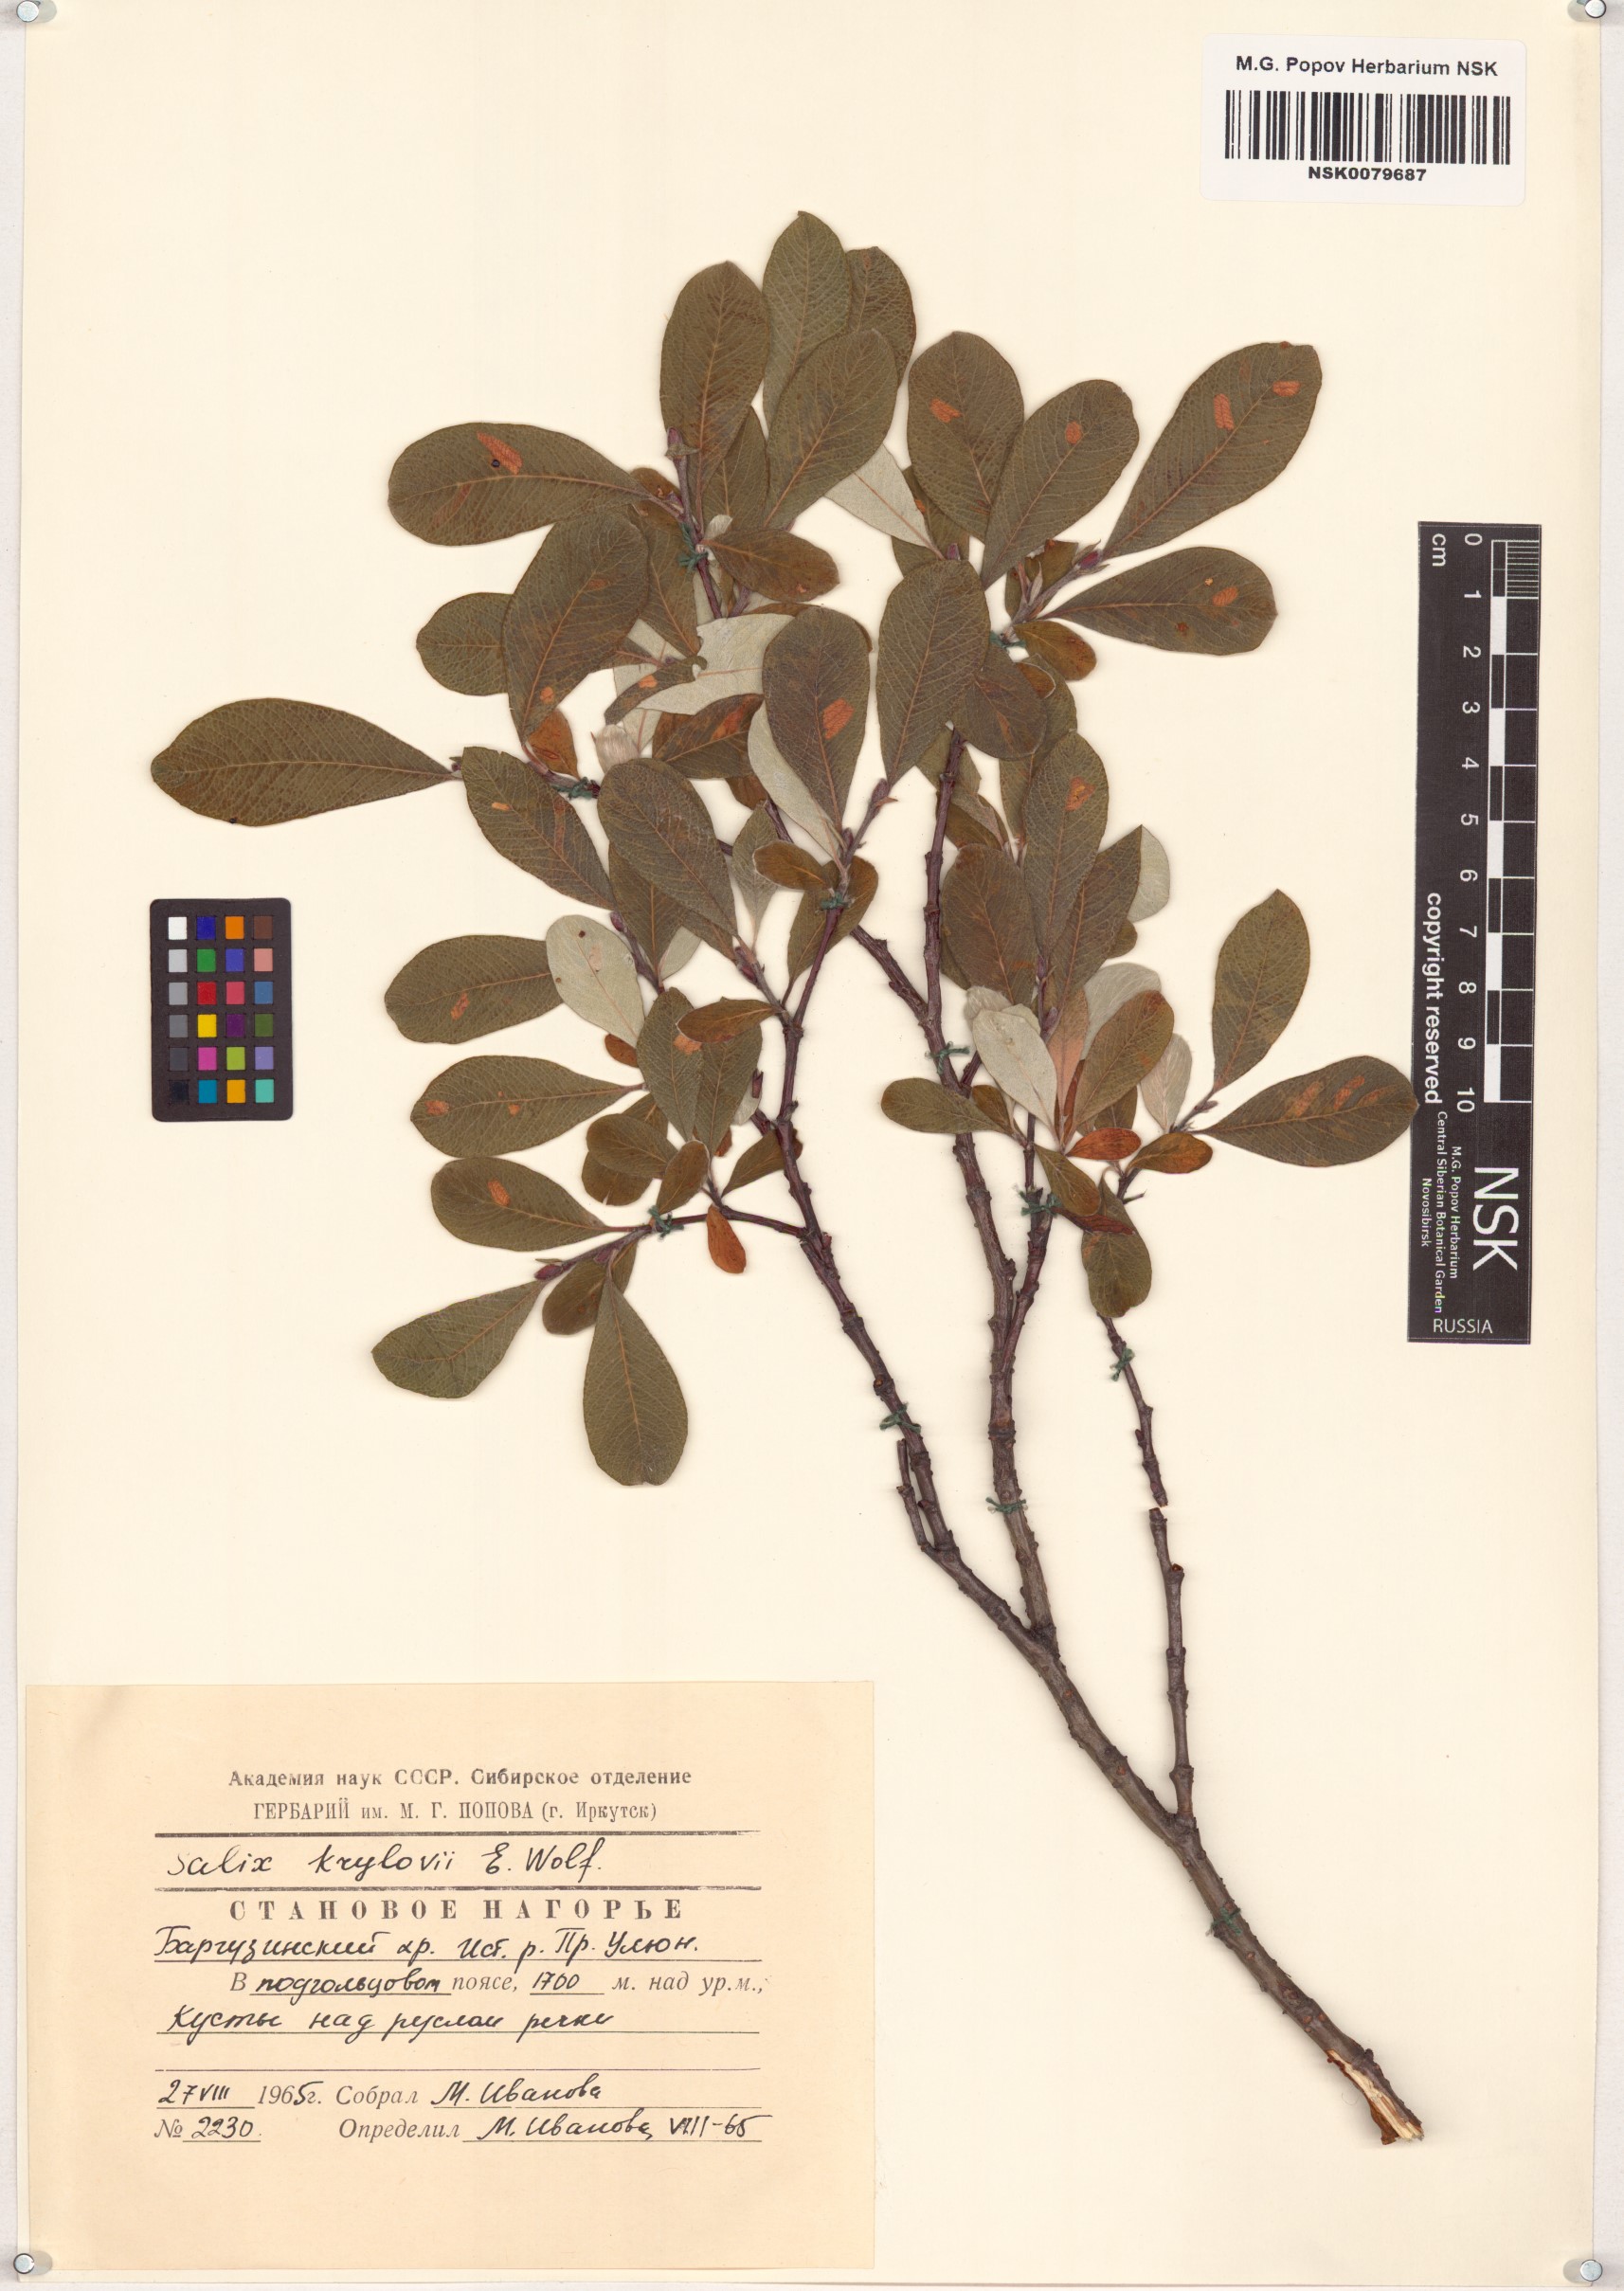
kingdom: Plantae
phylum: Tracheophyta
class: Magnoliopsida
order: Malpighiales
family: Salicaceae
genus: Salix
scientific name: Salix krylovii
